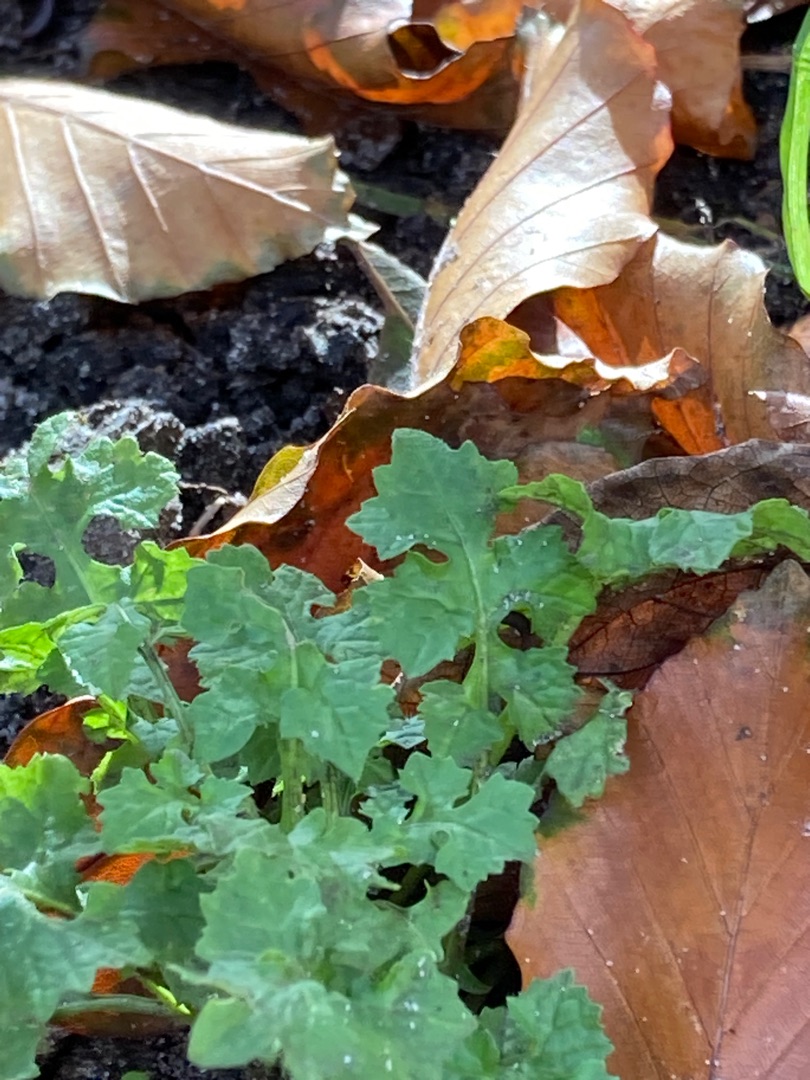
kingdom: Plantae
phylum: Tracheophyta
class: Magnoliopsida
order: Asterales
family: Asteraceae
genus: Sonchus
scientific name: Sonchus oleraceus
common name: Almindelig svinemælk
